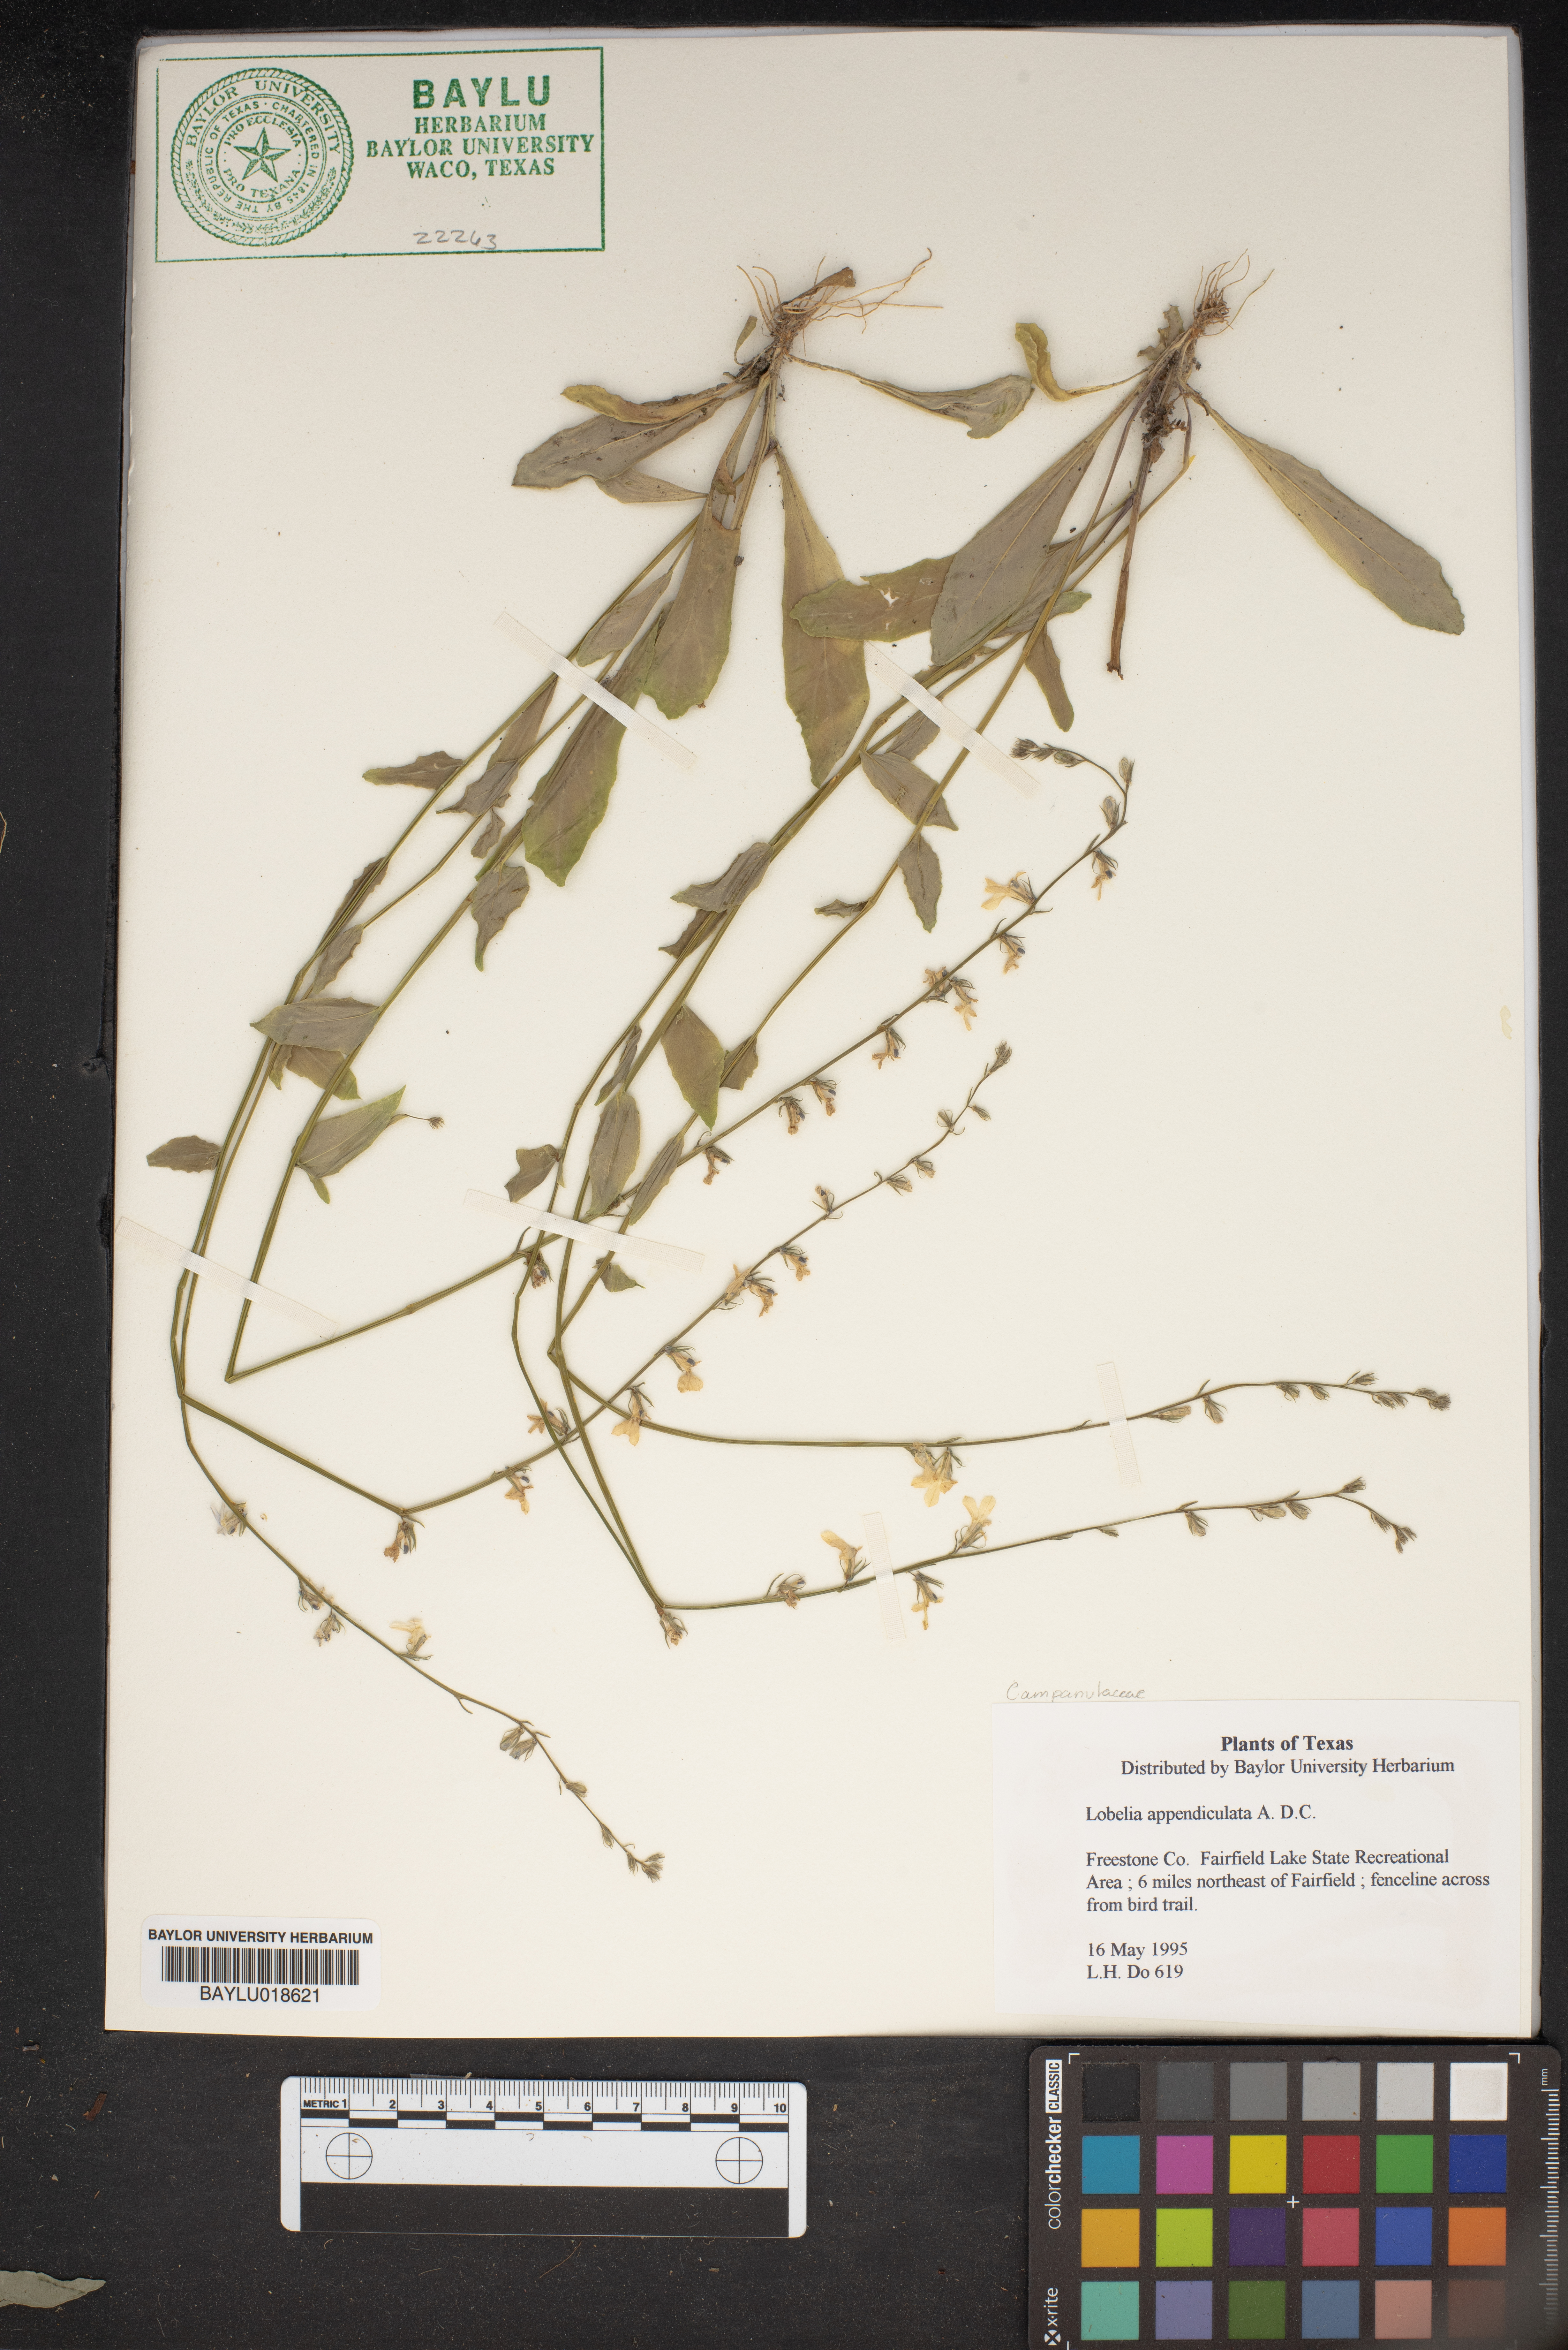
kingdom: Plantae
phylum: Tracheophyta
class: Magnoliopsida
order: Asterales
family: Campanulaceae
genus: Lobelia
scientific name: Lobelia appendiculata
